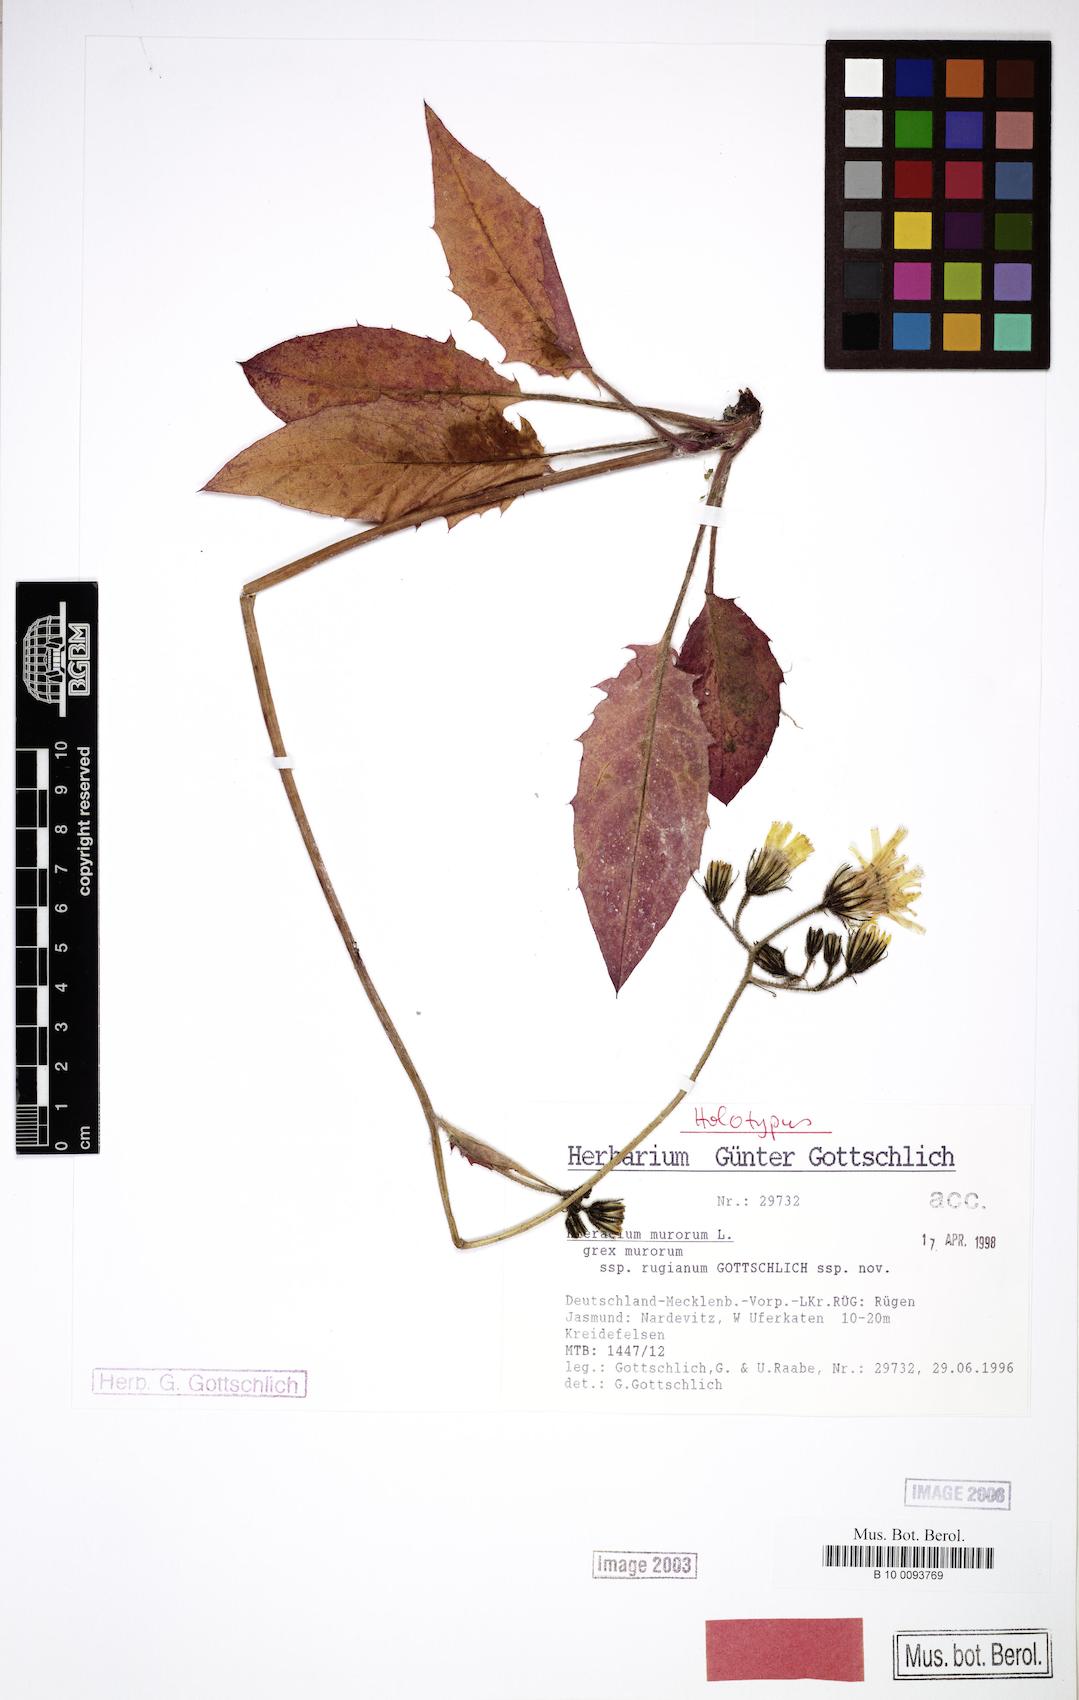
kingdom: Plantae
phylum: Tracheophyta
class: Magnoliopsida
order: Asterales
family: Asteraceae
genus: Hieracium
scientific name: Hieracium murorum
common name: Wall hawkweed
